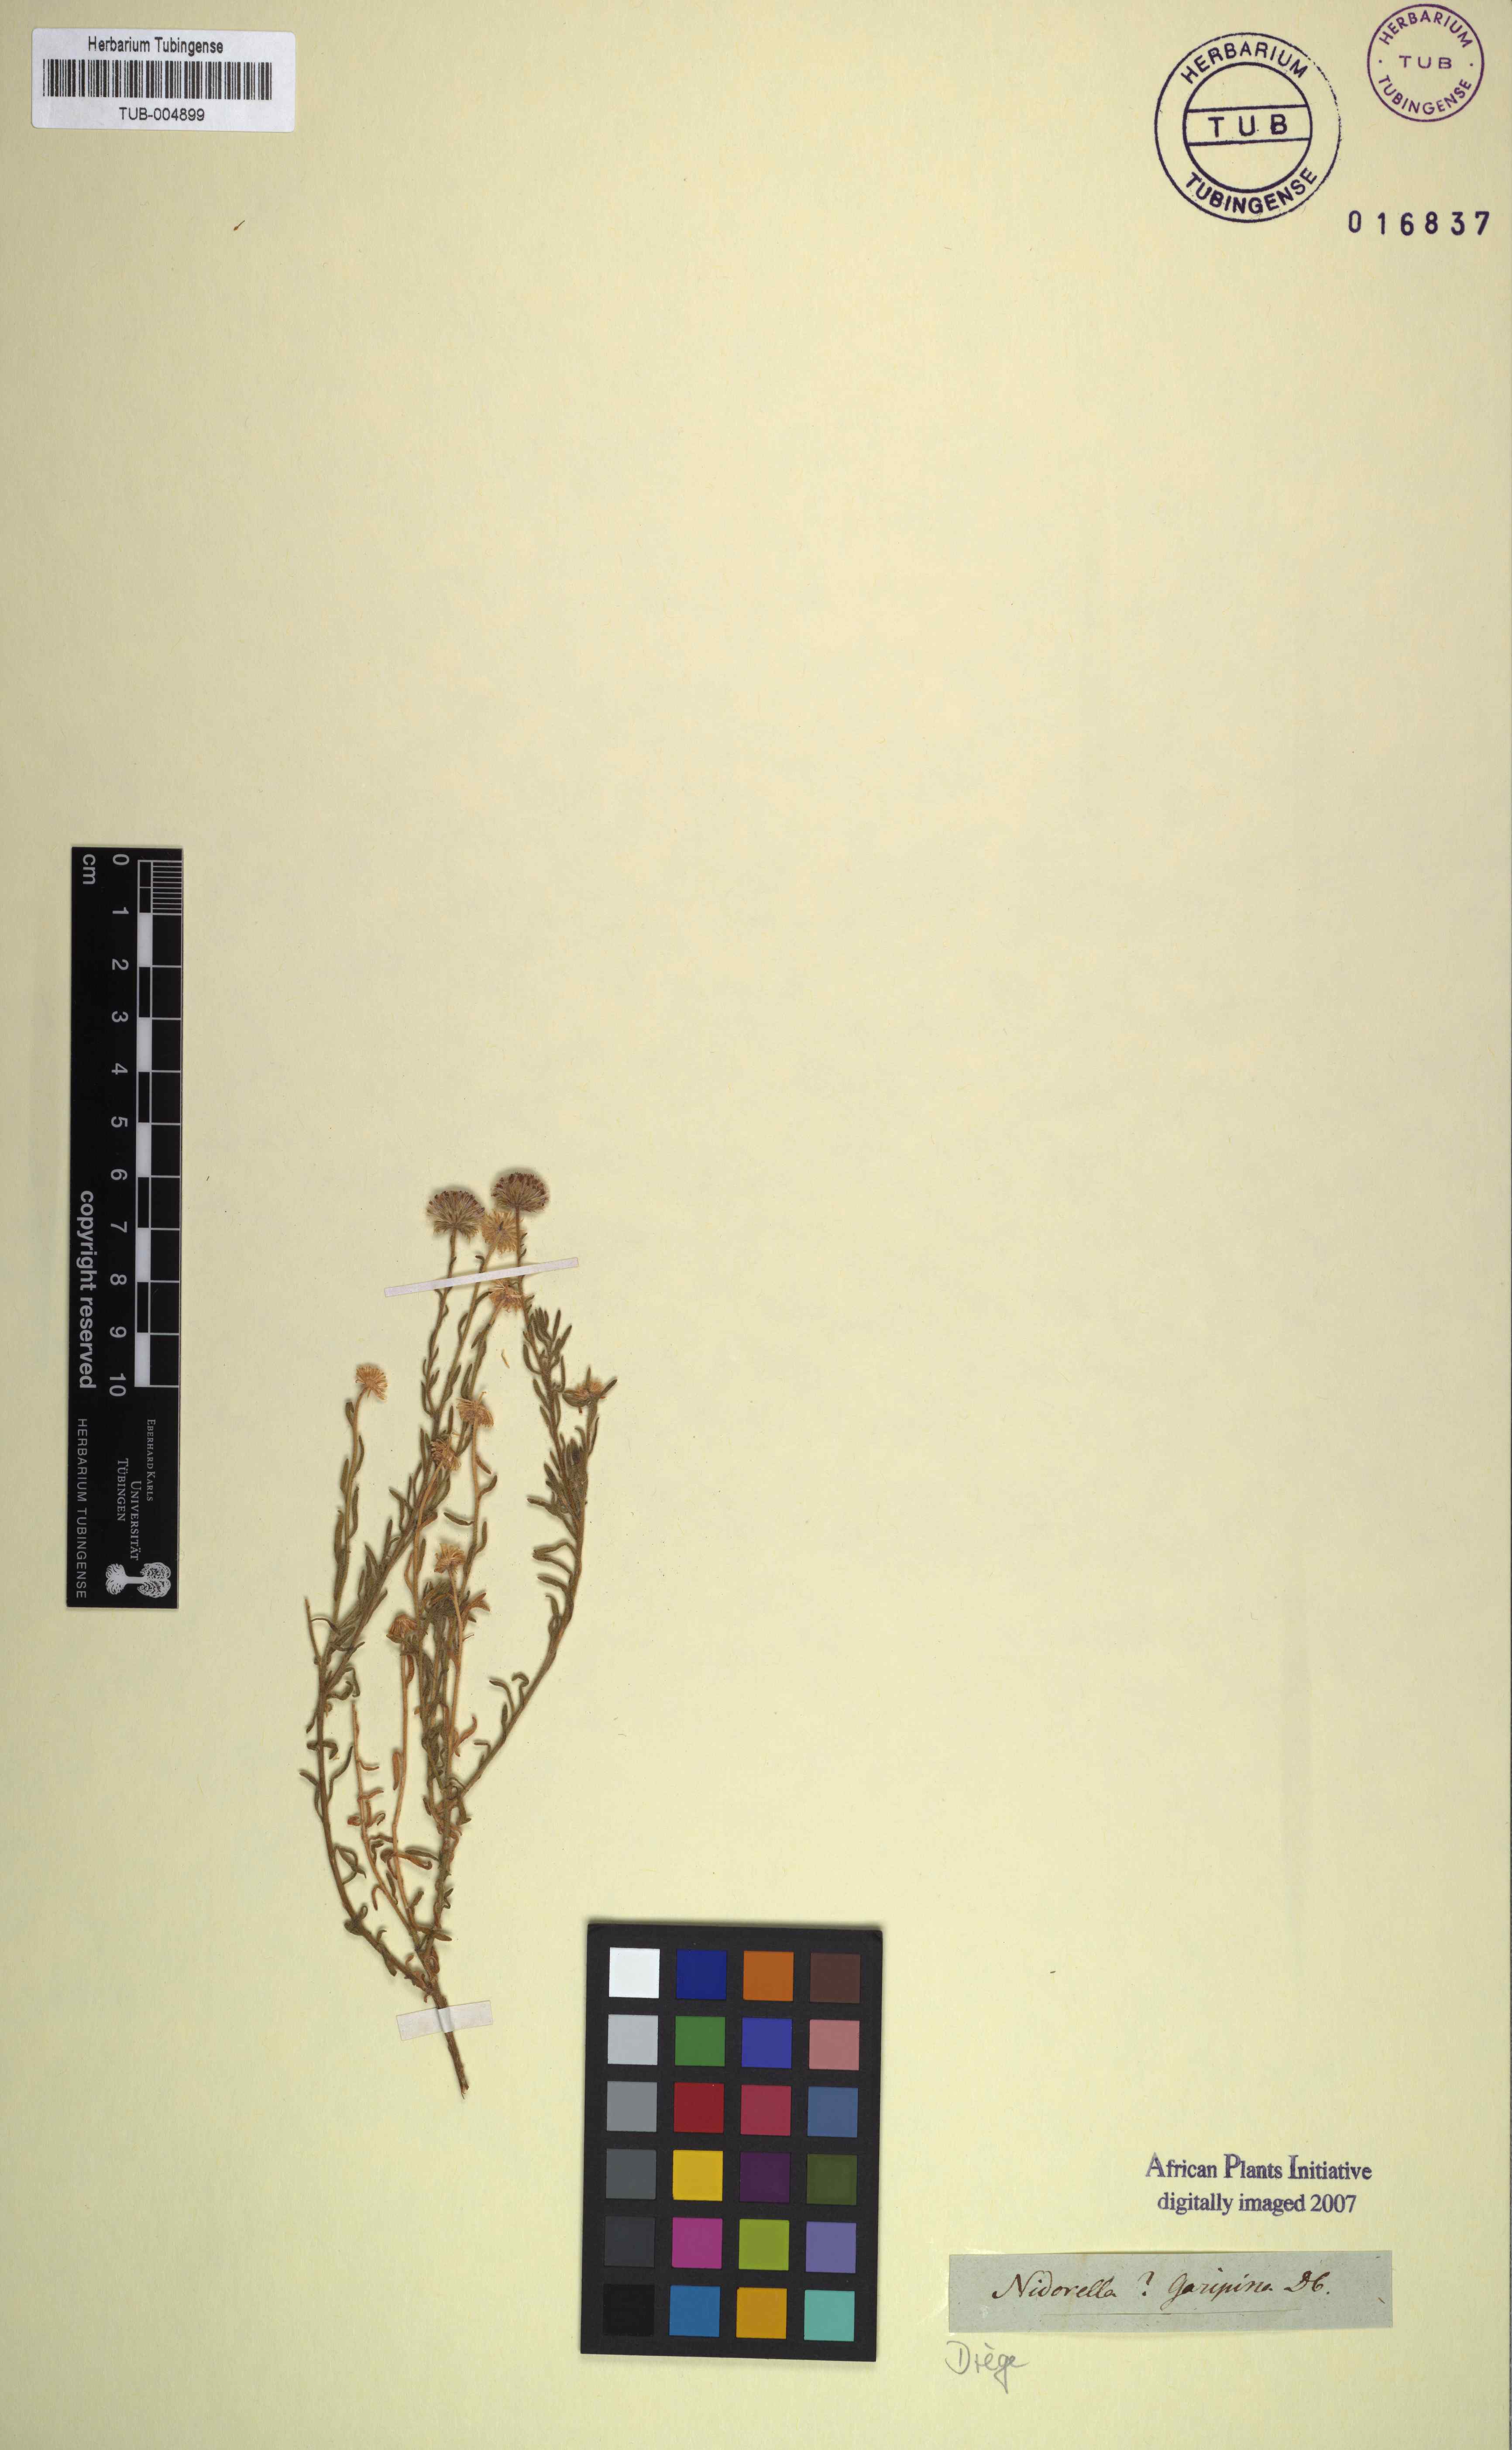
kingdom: Plantae
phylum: Tracheophyta
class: Magnoliopsida
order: Asterales
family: Asteraceae
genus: Nidorella
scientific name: Nidorella
